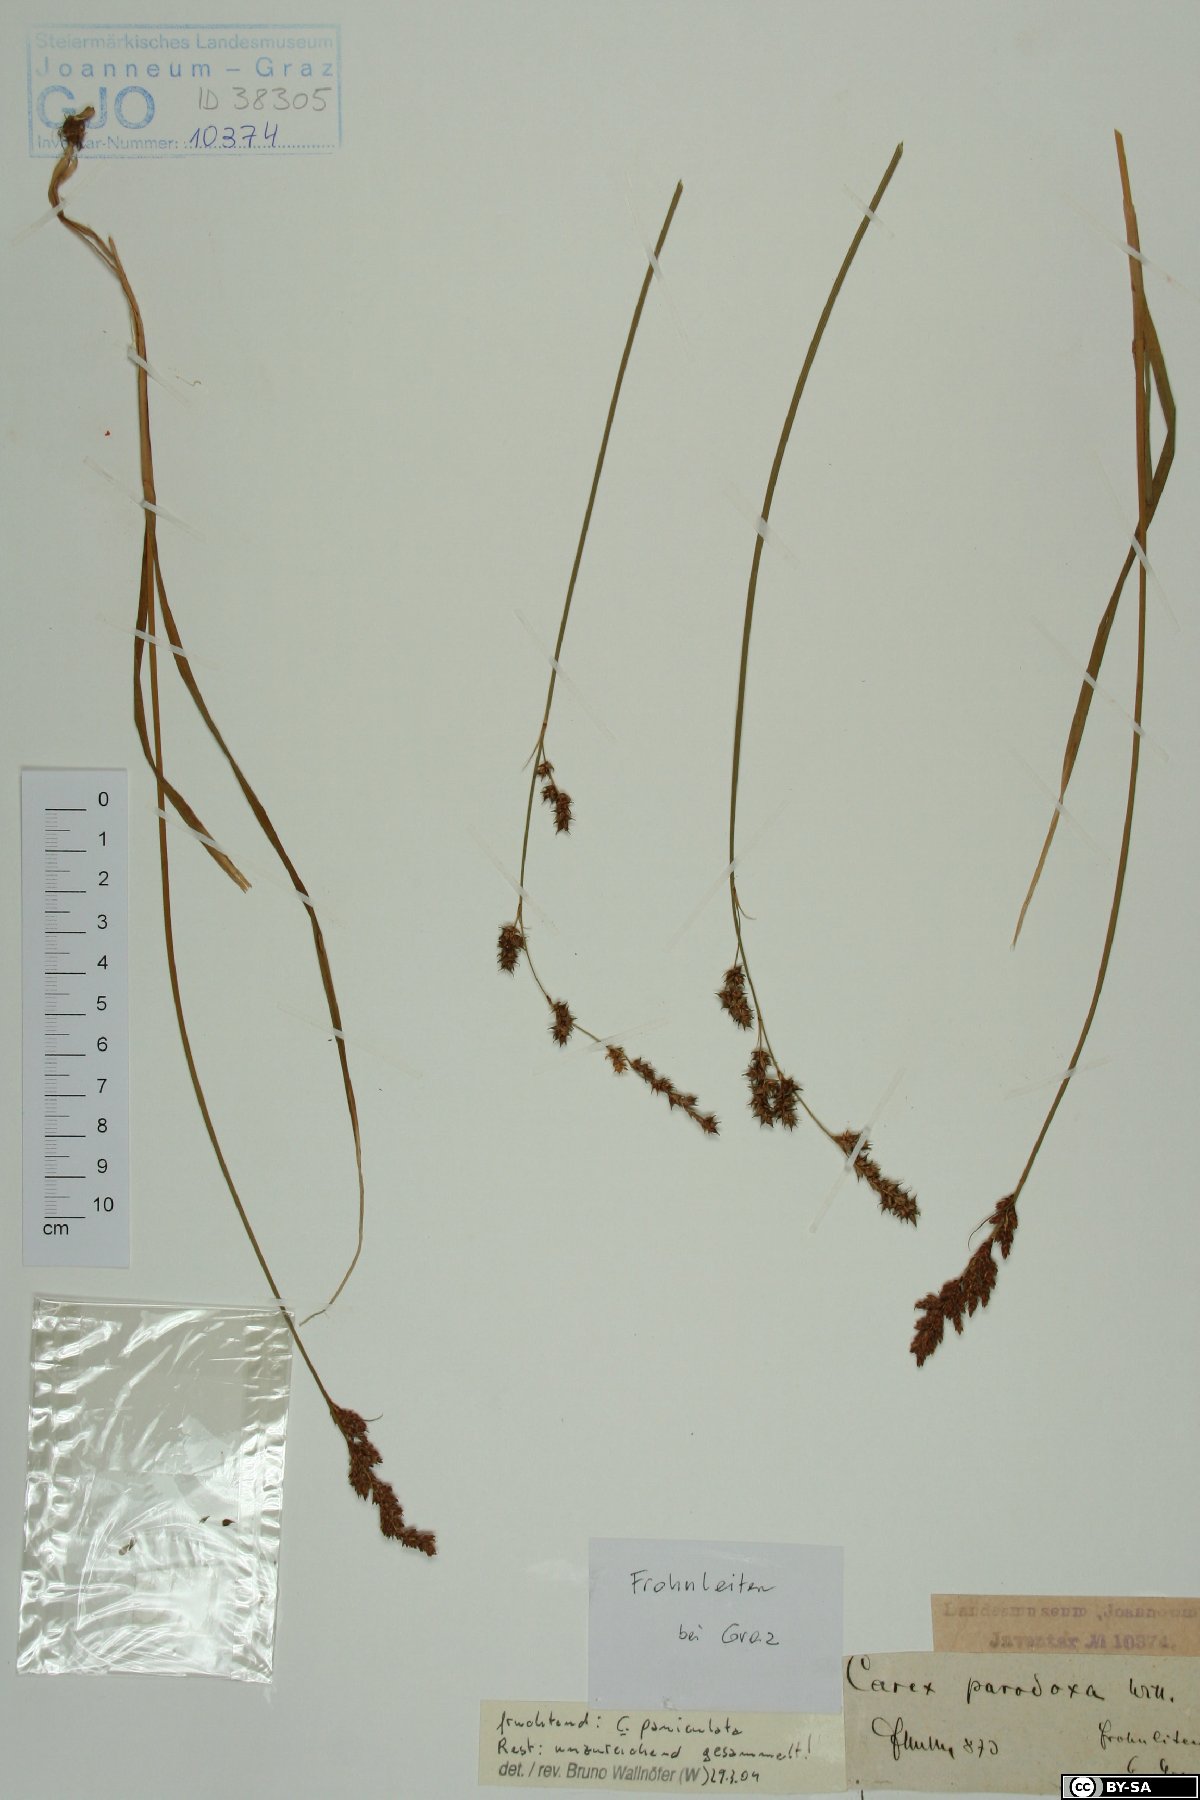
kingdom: Plantae
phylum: Tracheophyta
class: Liliopsida
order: Poales
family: Cyperaceae
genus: Carex
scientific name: Carex appropinquata
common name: Fibrous tussock-sedge
